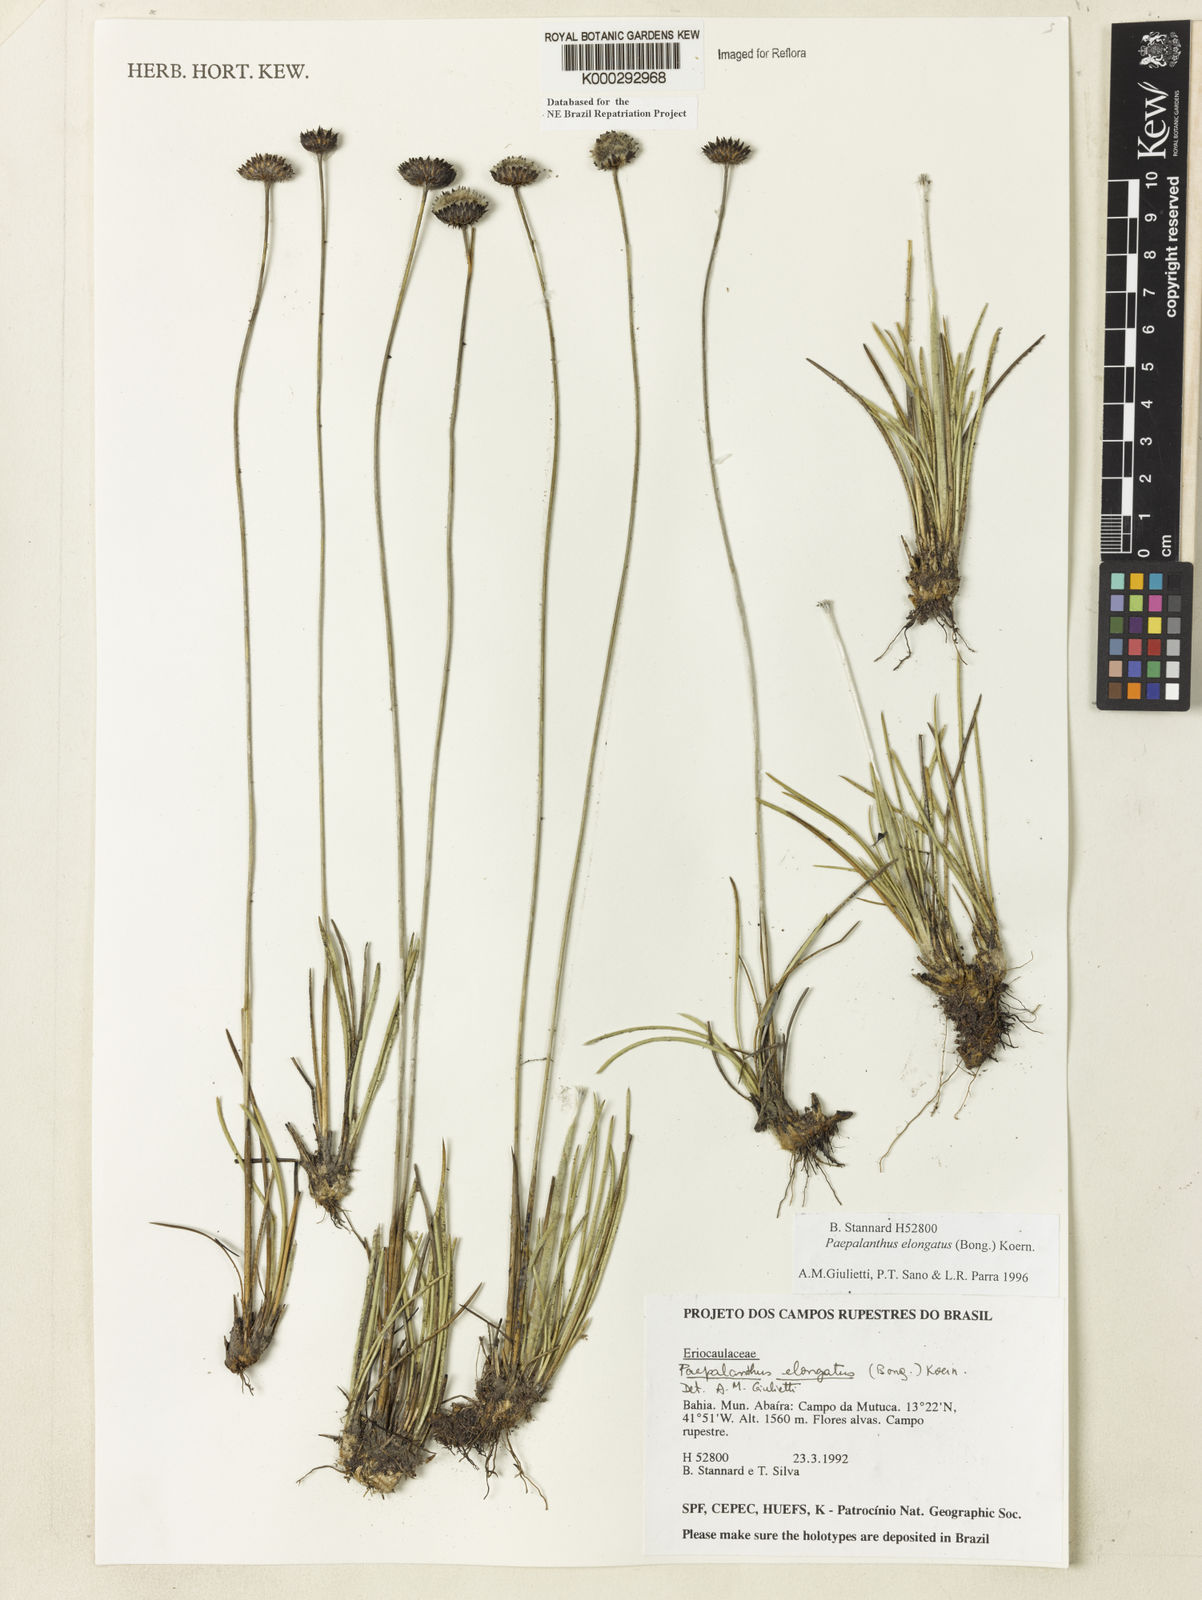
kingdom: Plantae
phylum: Tracheophyta
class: Liliopsida
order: Poales
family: Eriocaulaceae
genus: Paepalanthus
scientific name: Paepalanthus
